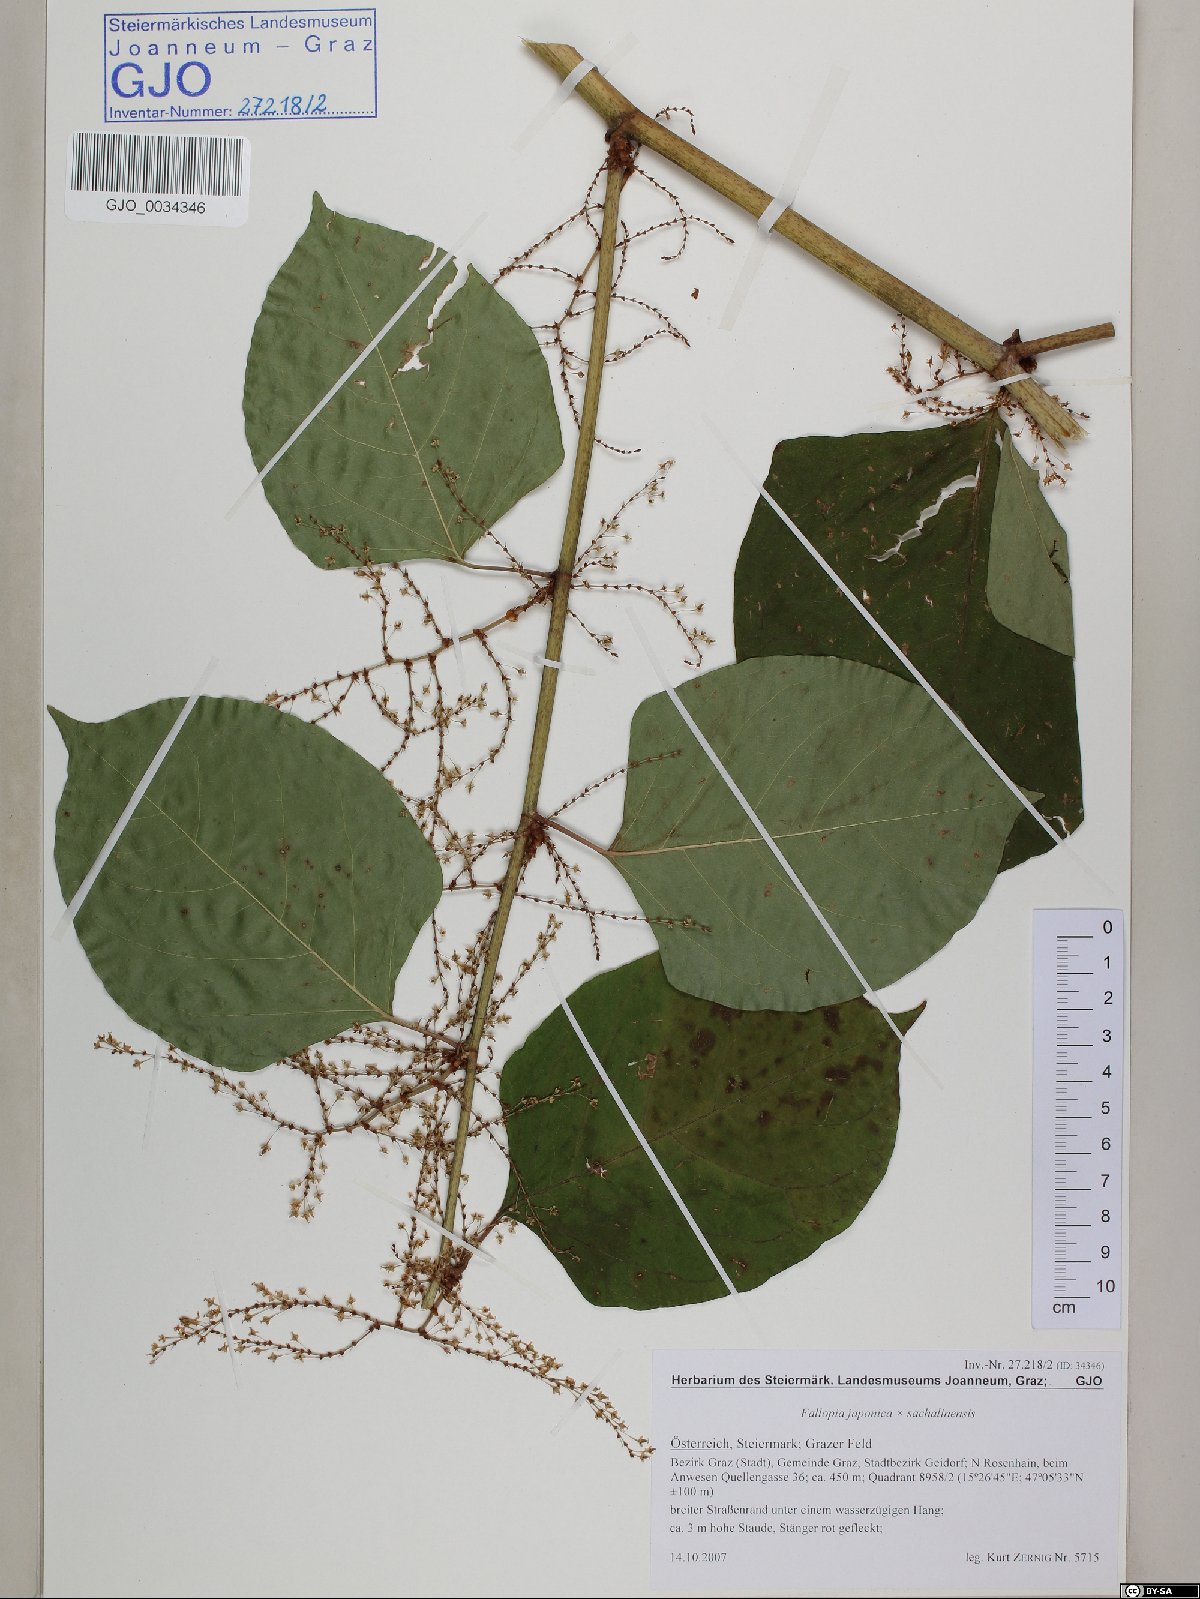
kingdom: Plantae
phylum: Tracheophyta
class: Magnoliopsida
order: Caryophyllales
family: Polygonaceae
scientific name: Polygonaceae
